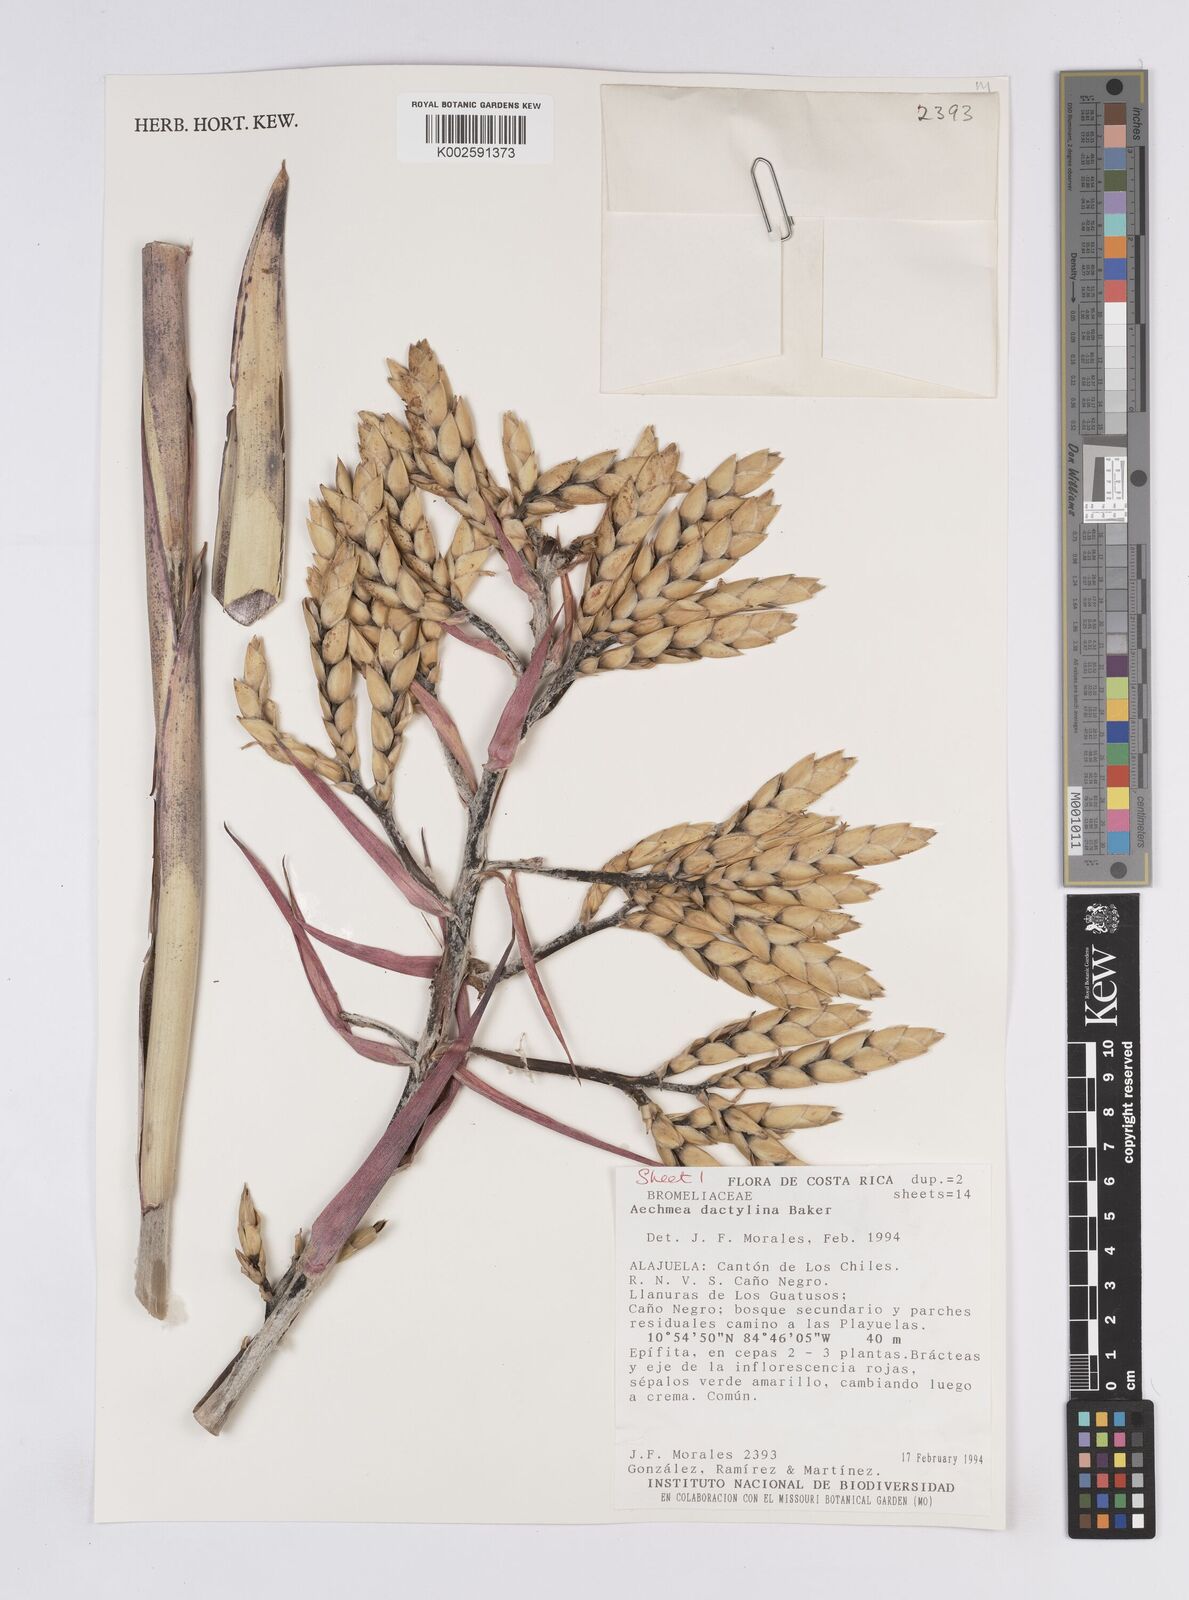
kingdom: Plantae
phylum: Tracheophyta
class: Liliopsida
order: Poales
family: Bromeliaceae
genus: Aechmea
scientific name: Aechmea dactylina
